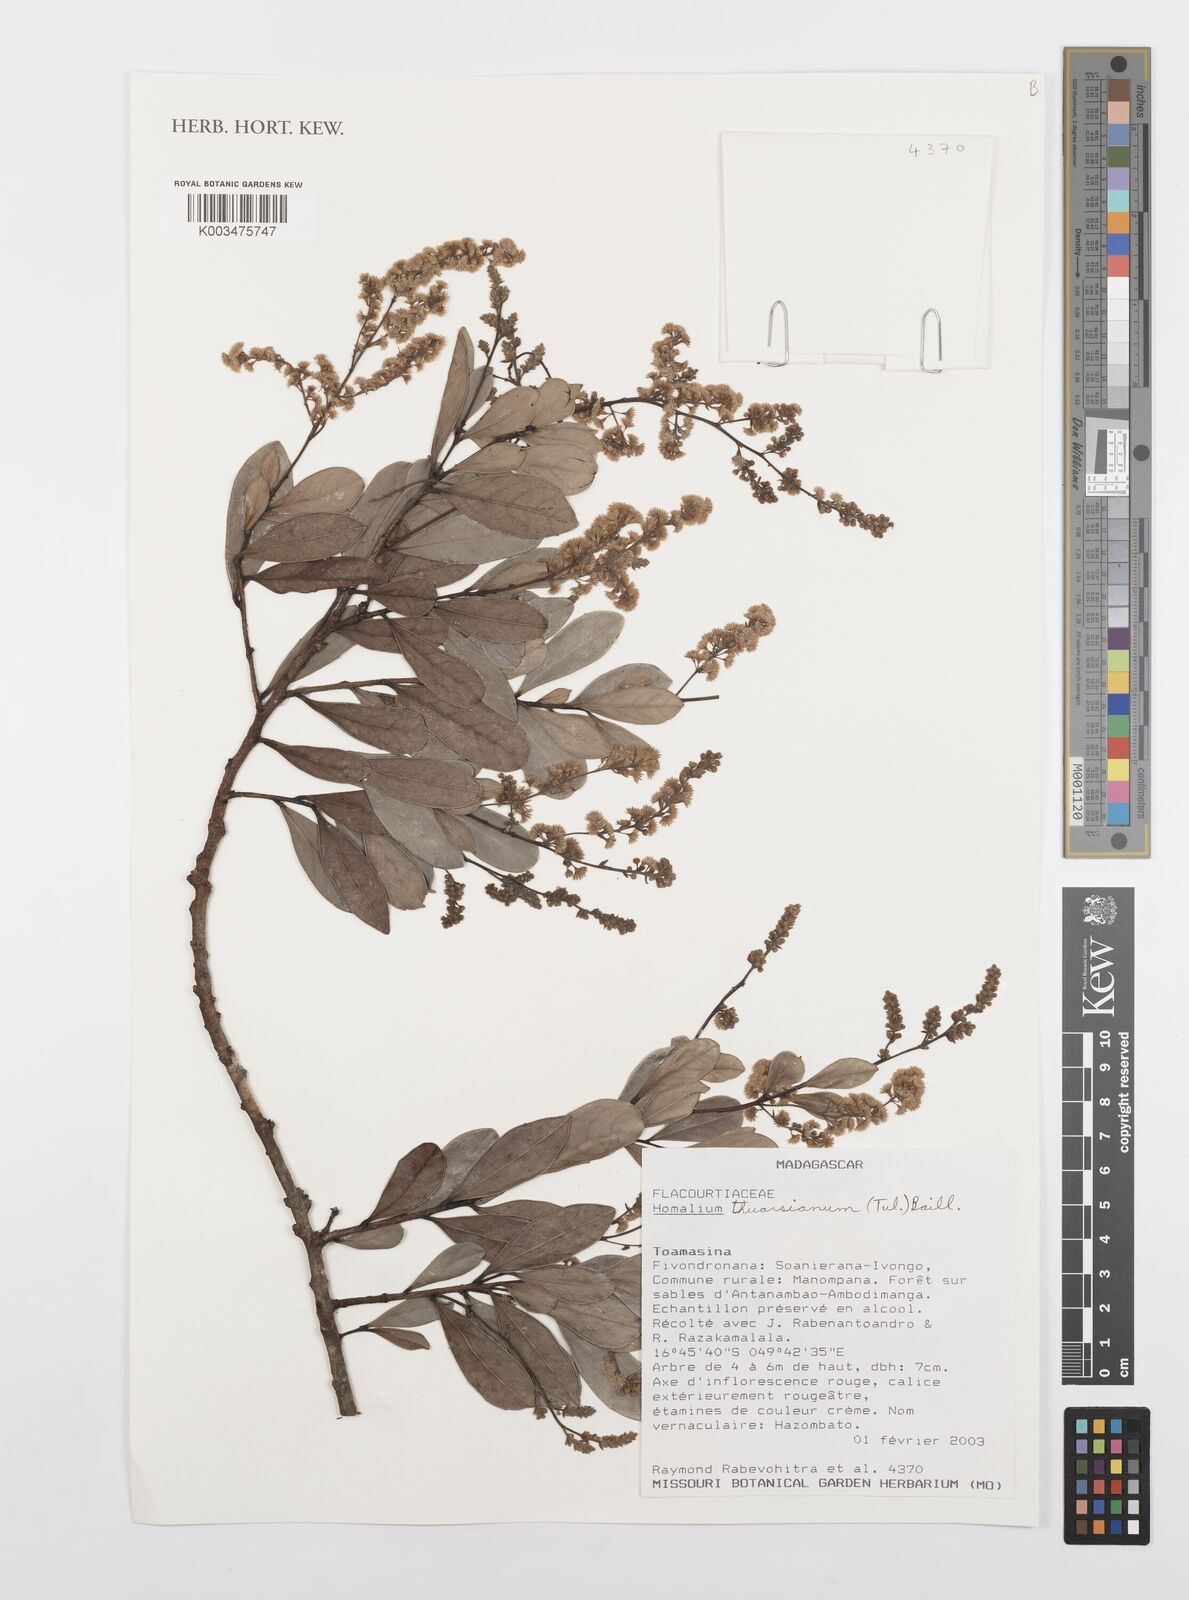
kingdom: Plantae
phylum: Tracheophyta
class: Magnoliopsida
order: Malpighiales
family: Salicaceae
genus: Homalium
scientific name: Homalium thuarsianum
